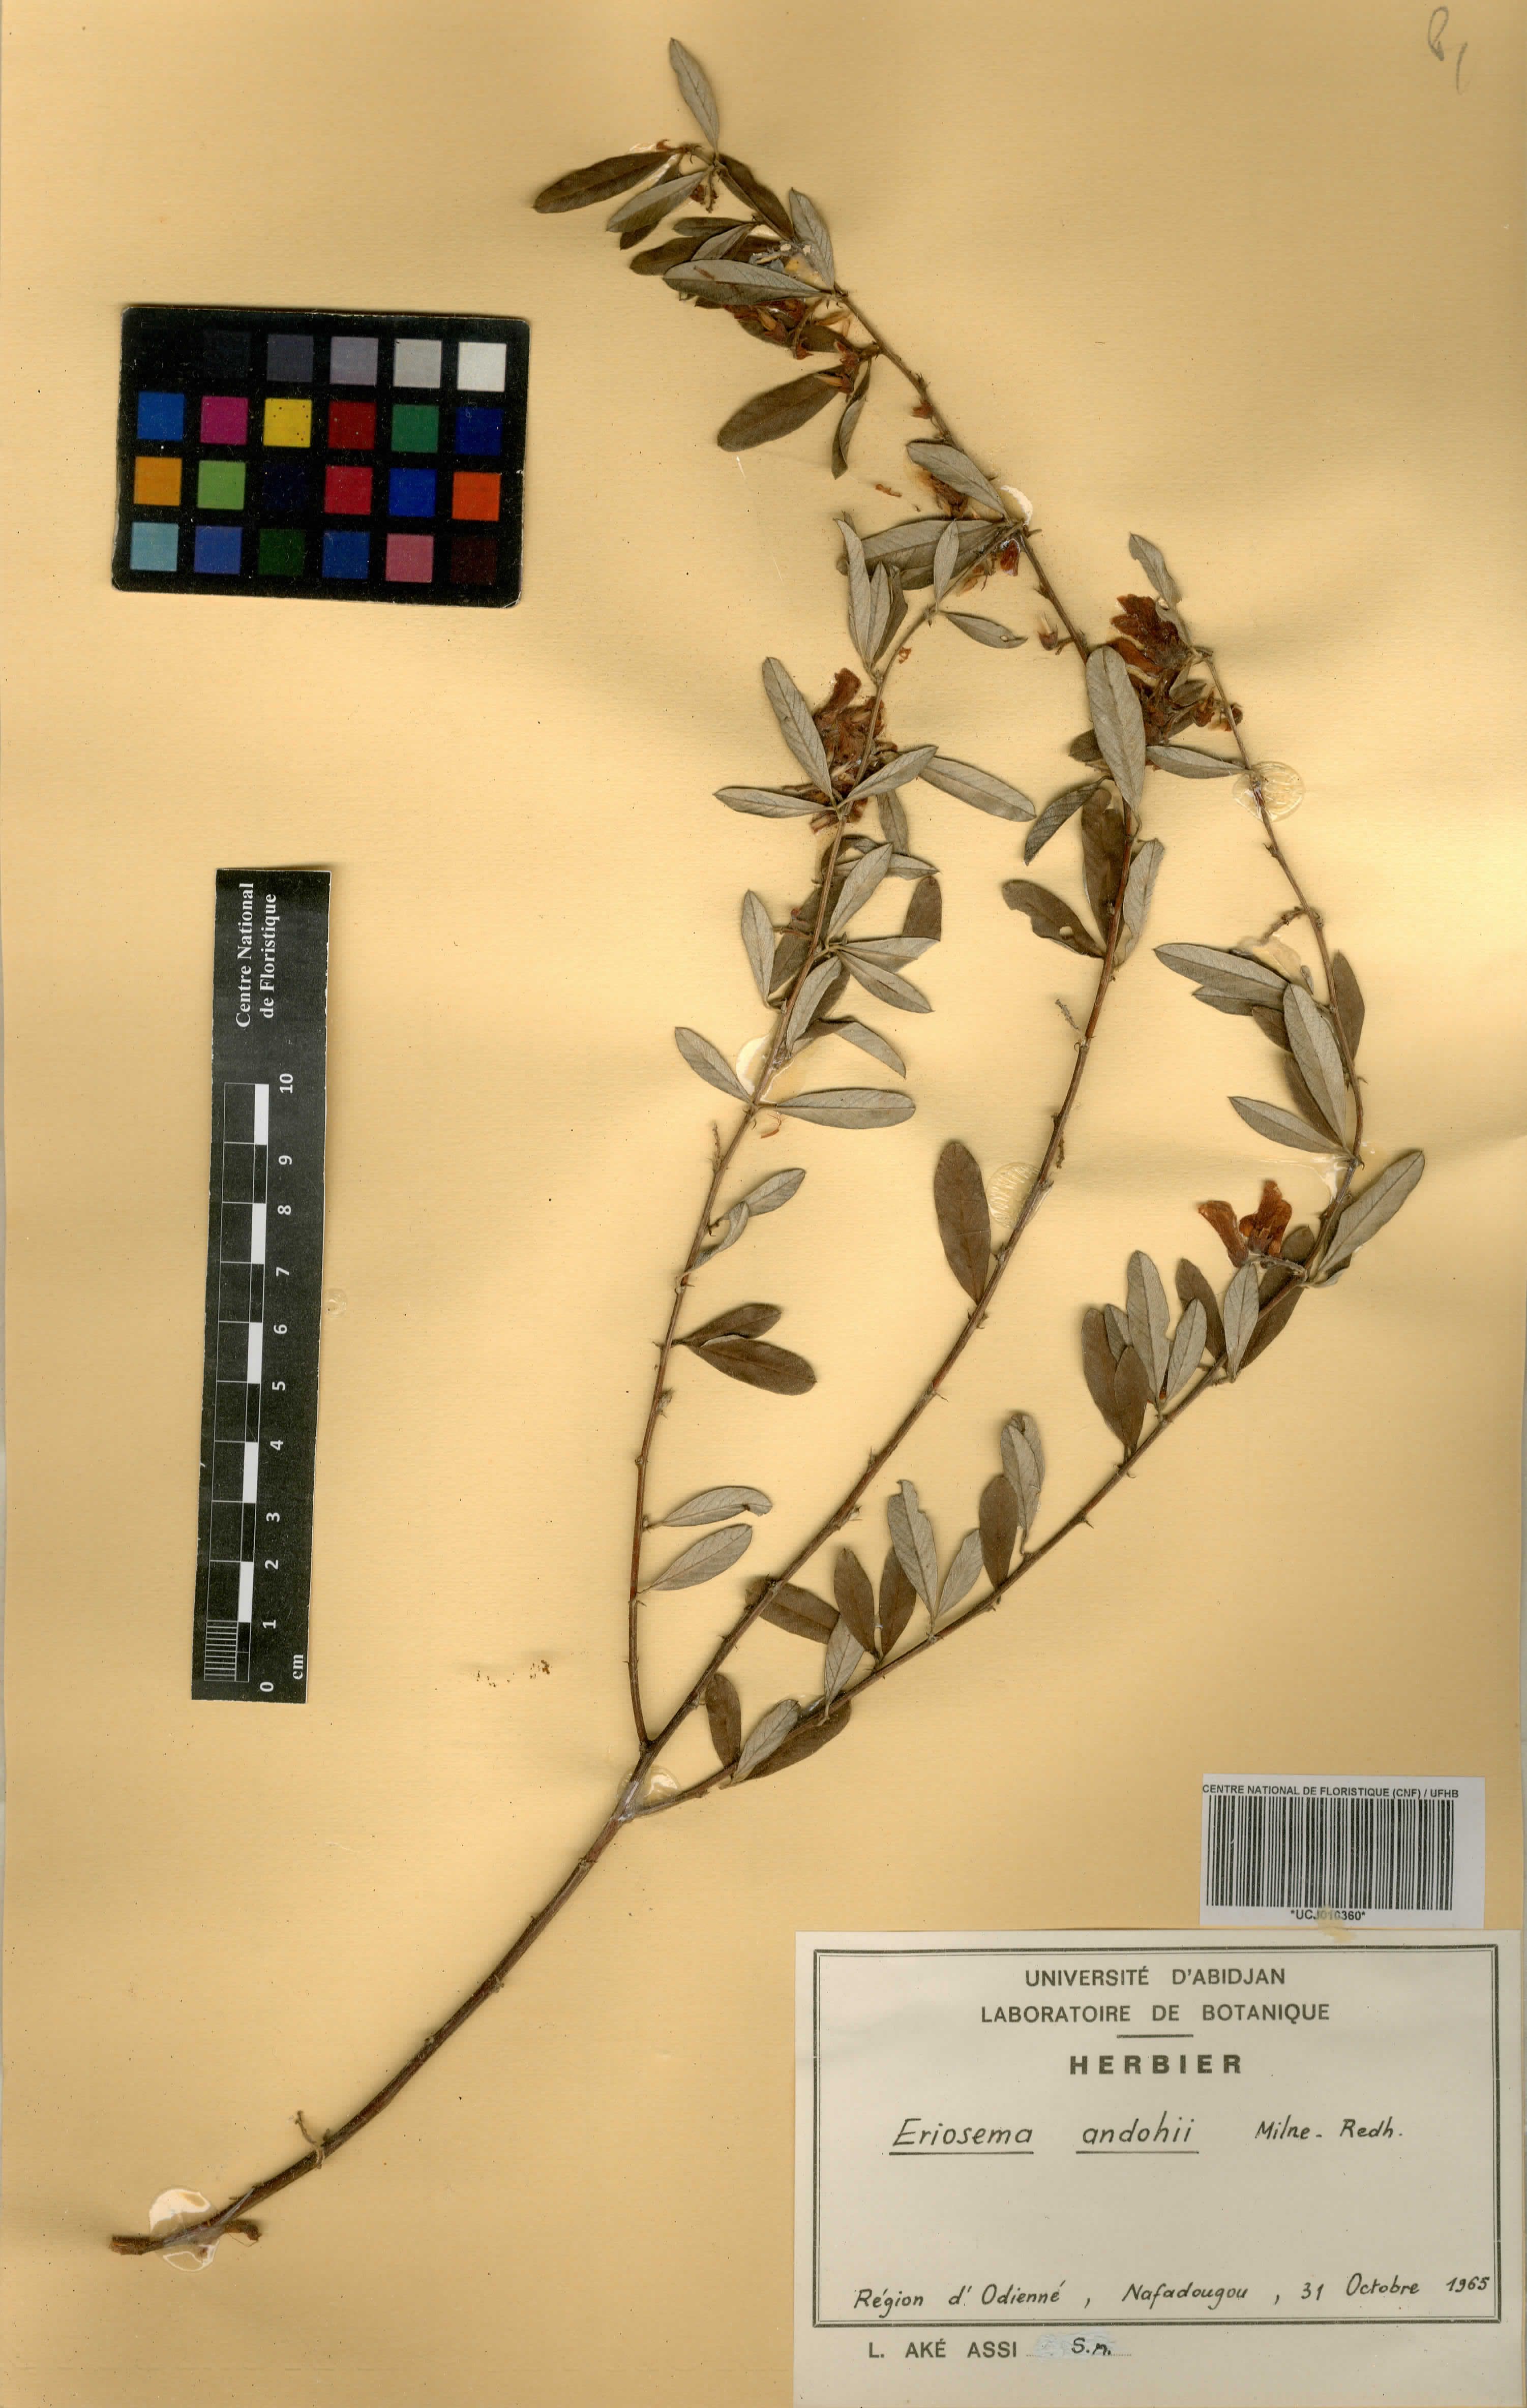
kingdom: Plantae
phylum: Tracheophyta
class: Magnoliopsida
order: Fabales
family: Fabaceae
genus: Eriosema
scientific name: Eriosema andohii
